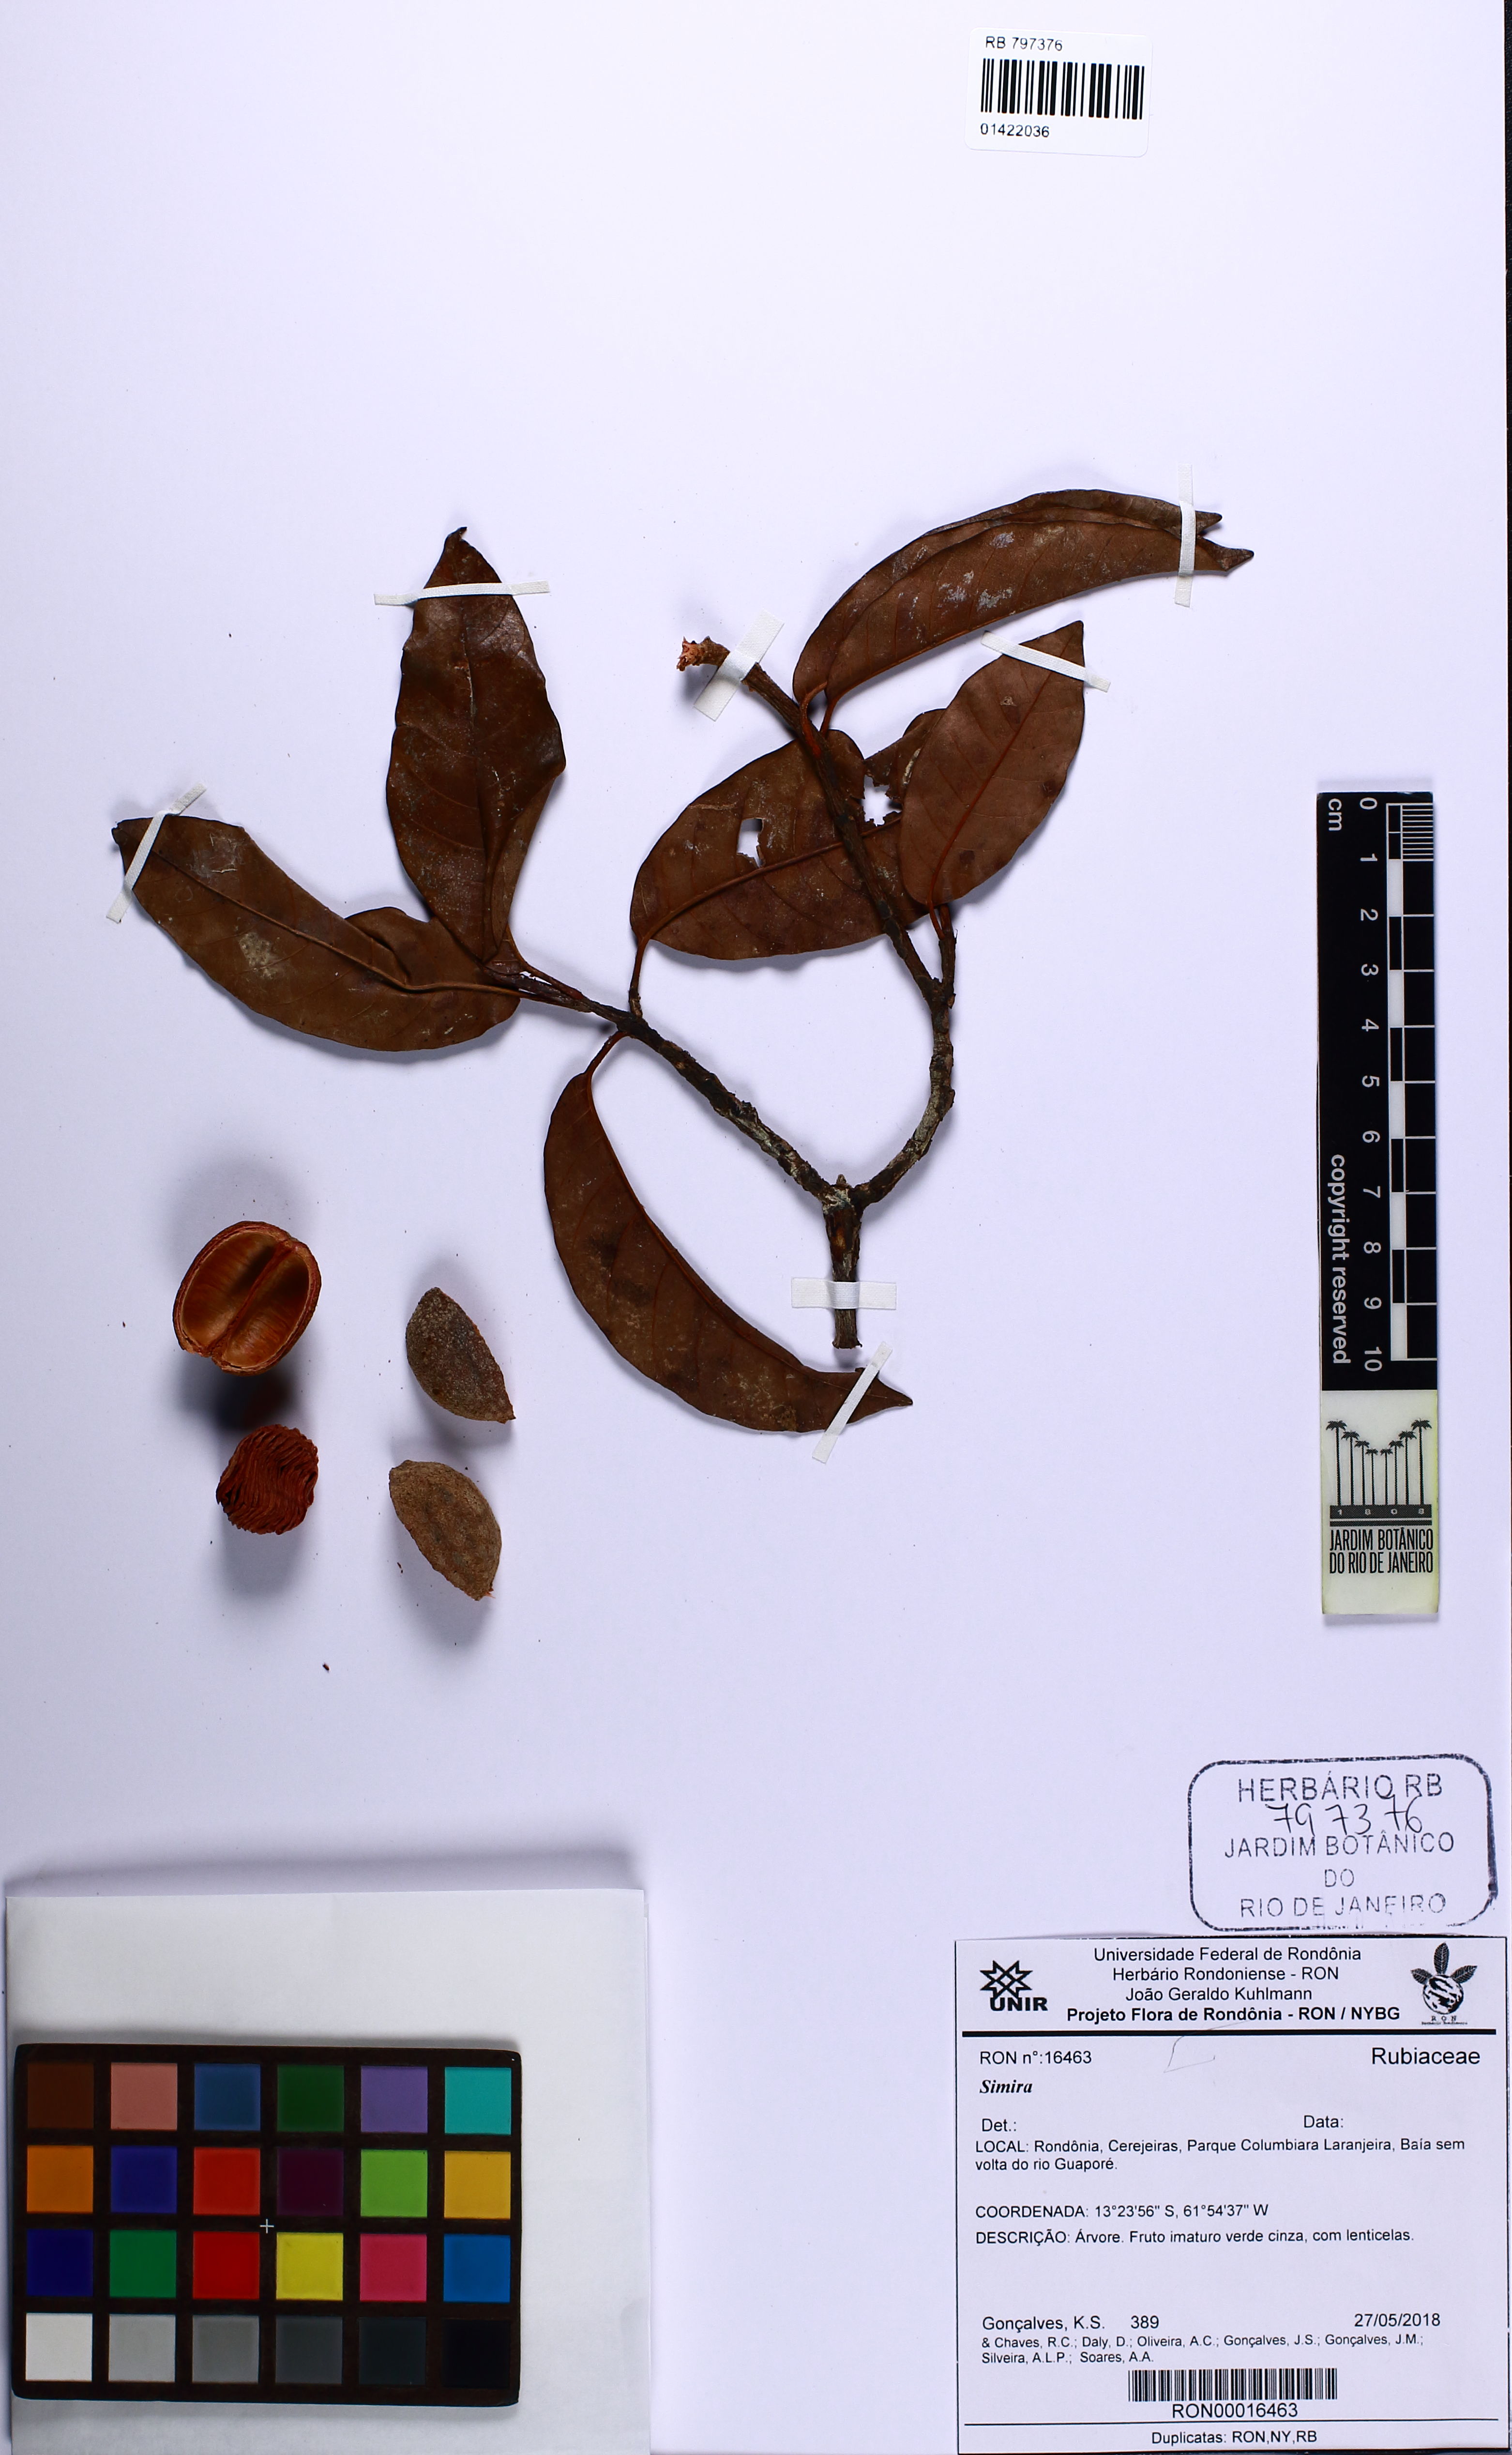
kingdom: Plantae
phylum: Tracheophyta
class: Magnoliopsida
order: Gentianales
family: Rubiaceae
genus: Simira
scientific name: Simira
